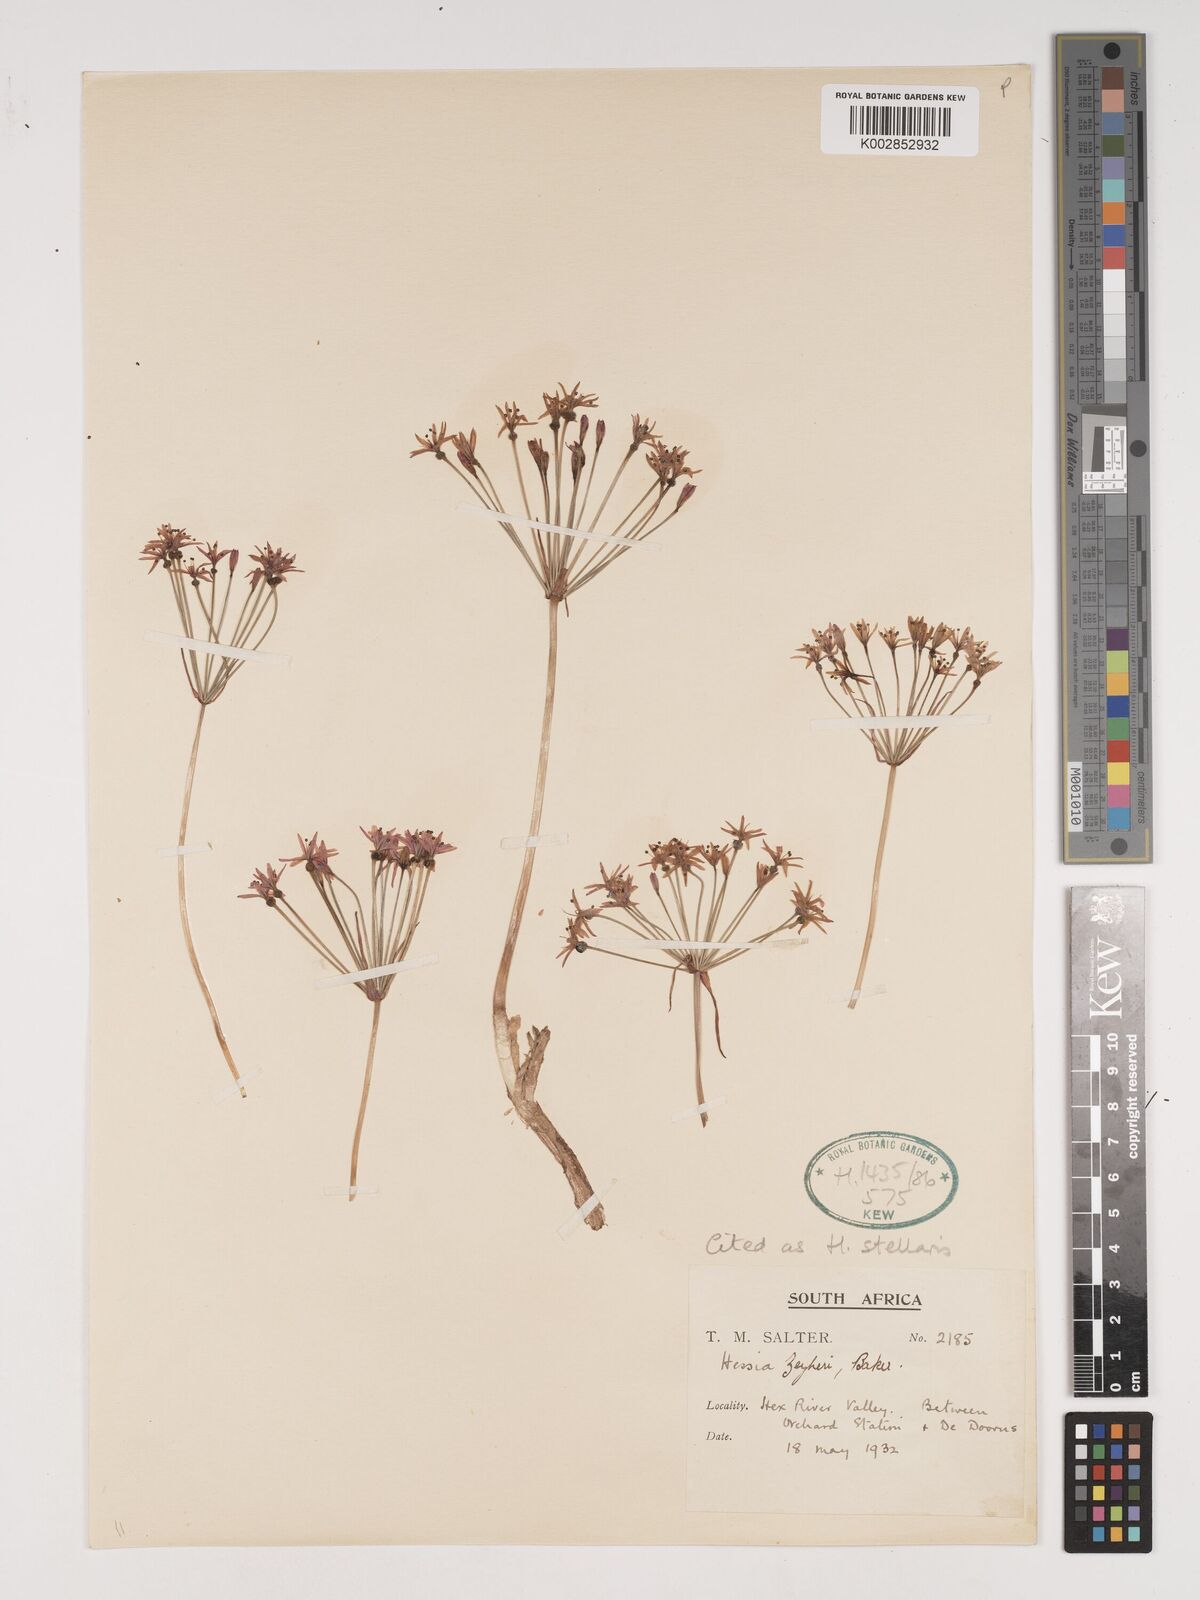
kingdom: Plantae
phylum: Tracheophyta
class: Liliopsida
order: Asparagales
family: Amaryllidaceae
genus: Hessea
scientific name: Hessea stellaris
